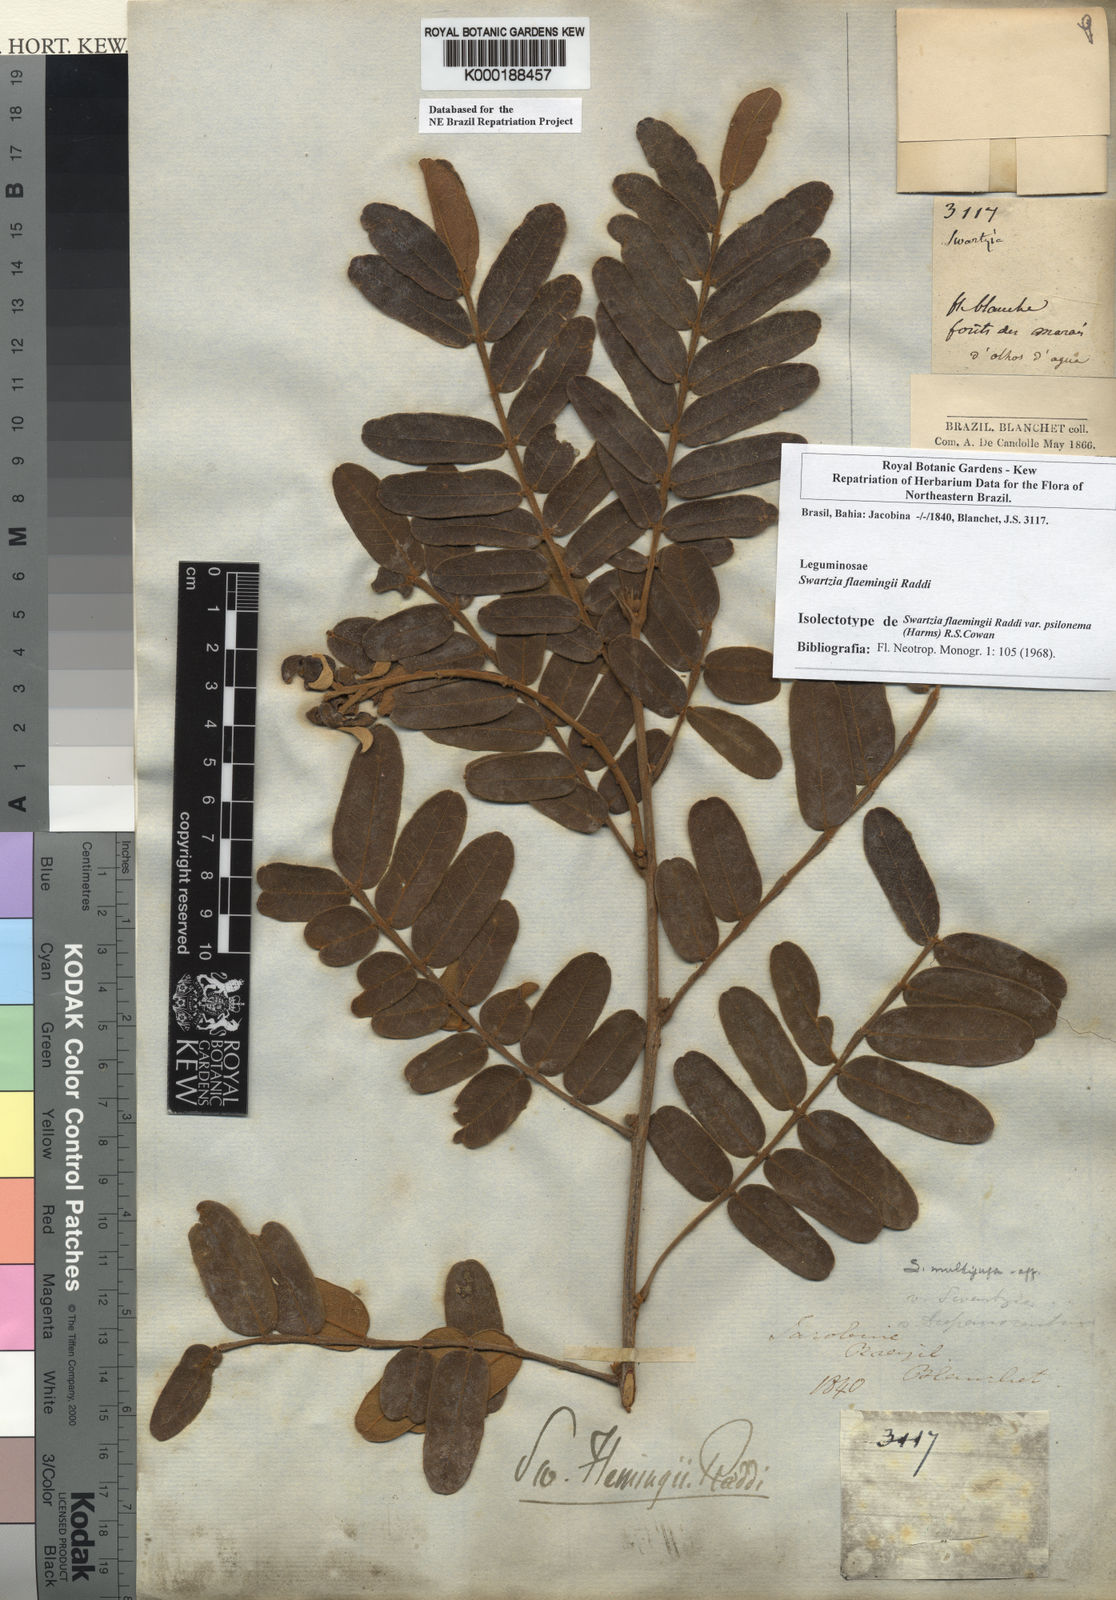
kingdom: Plantae
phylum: Tracheophyta
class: Magnoliopsida
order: Fabales
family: Fabaceae
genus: Swartzia
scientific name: Swartzia flaemingii
